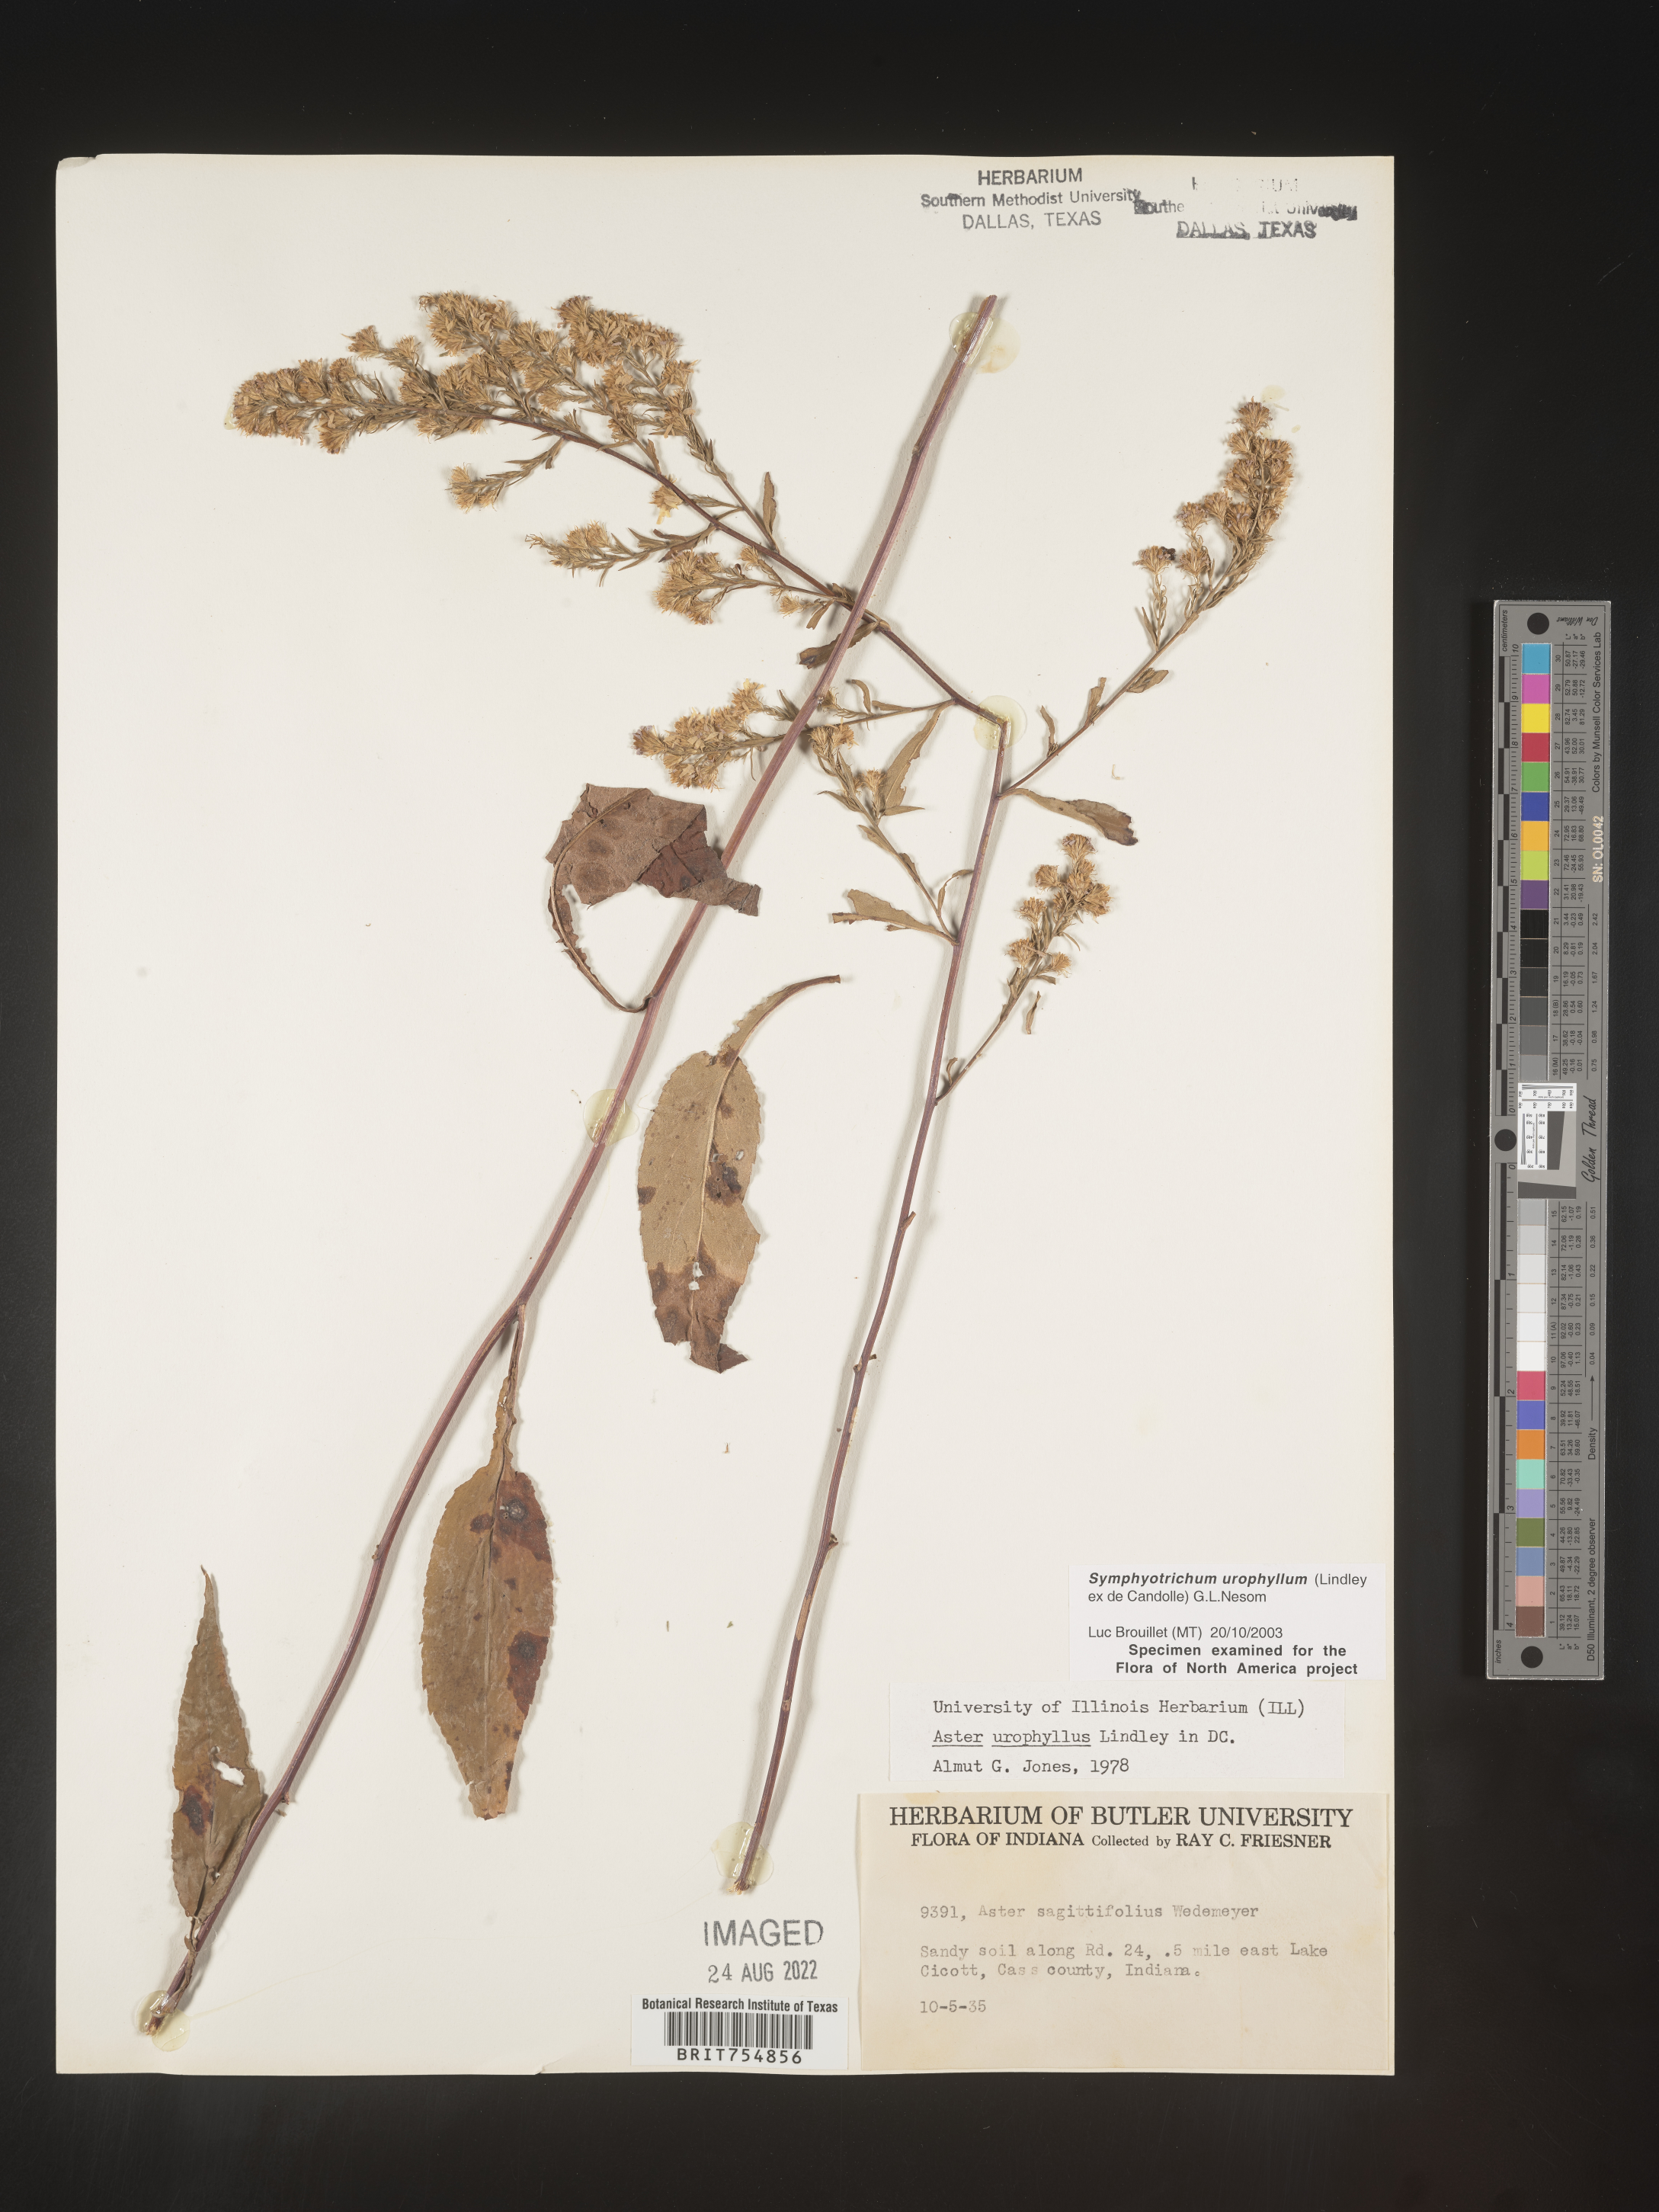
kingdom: Plantae
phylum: Tracheophyta
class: Magnoliopsida
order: Asterales
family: Asteraceae
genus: Symphyotrichum
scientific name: Symphyotrichum urophyllum
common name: Arrow-leaved aster
